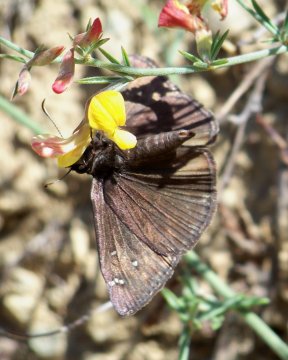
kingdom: Animalia
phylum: Arthropoda
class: Insecta
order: Lepidoptera
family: Hesperiidae
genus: Erynnis
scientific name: Erynnis meridianus
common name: Meridian Duskywing
